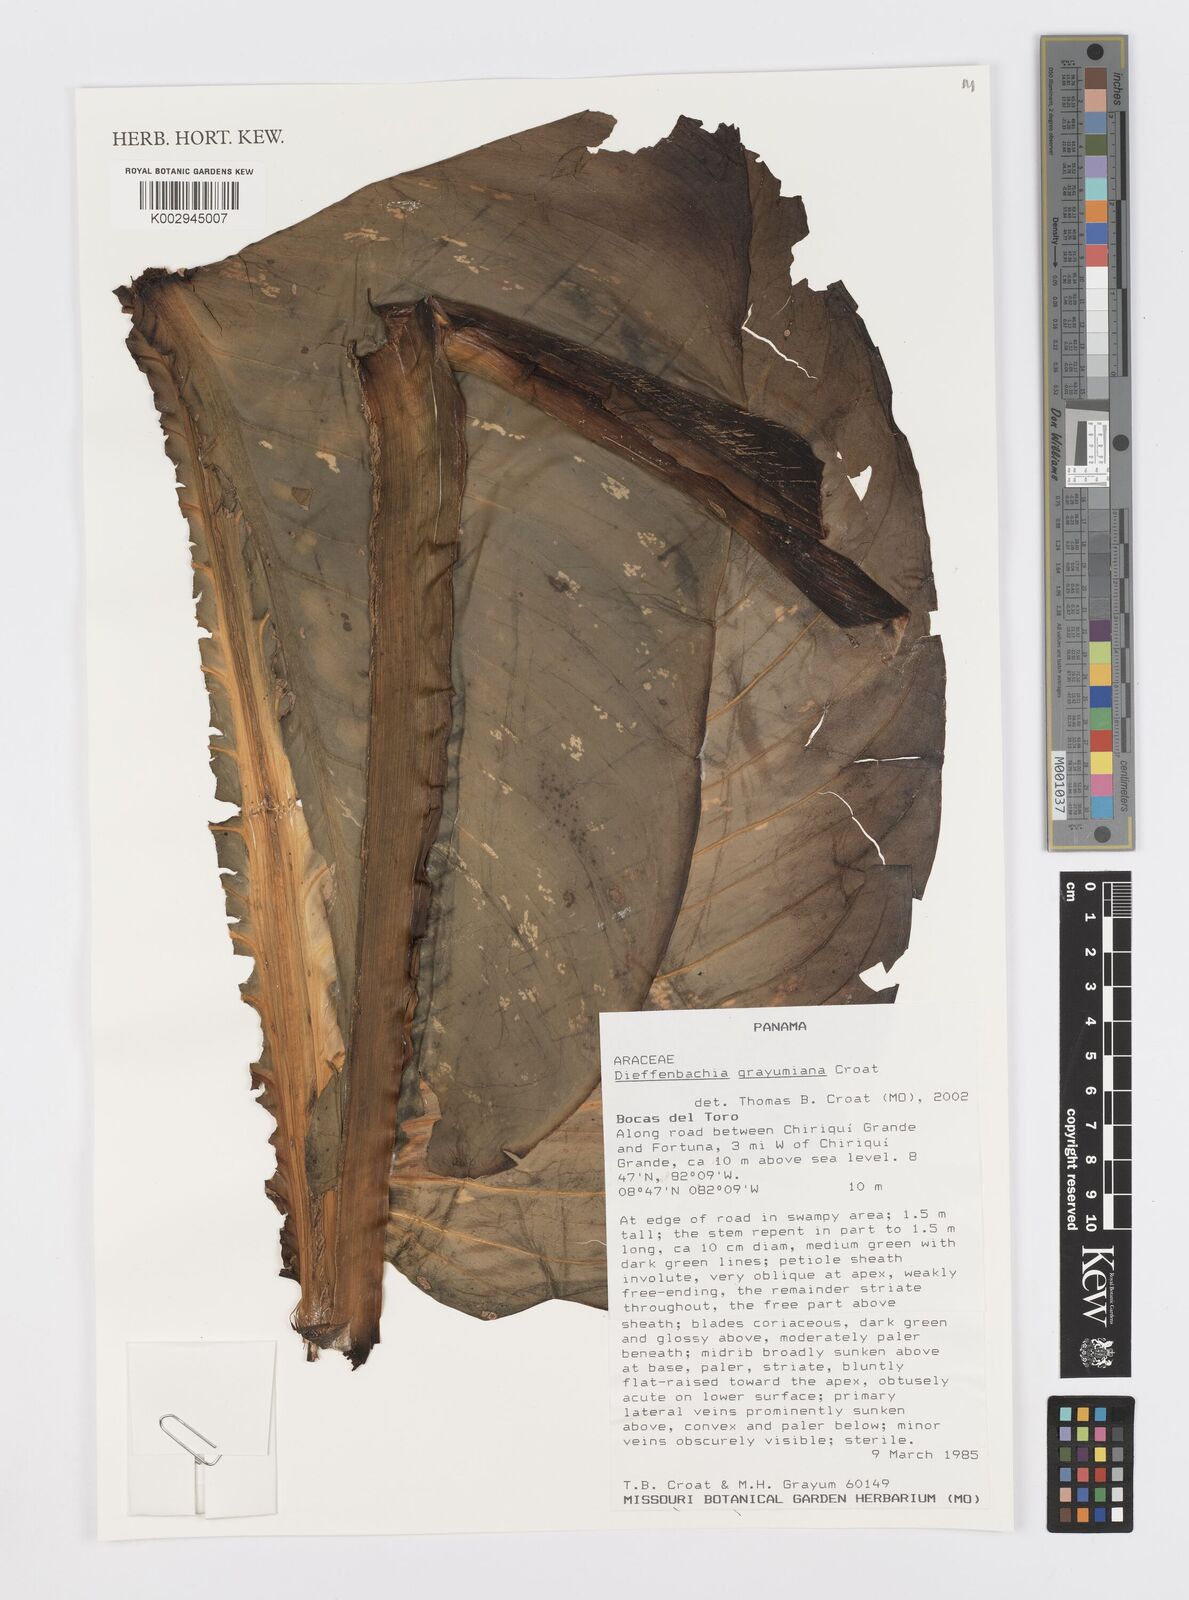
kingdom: Plantae
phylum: Tracheophyta
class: Liliopsida
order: Alismatales
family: Araceae
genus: Dieffenbachia
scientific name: Dieffenbachia grayumiana
